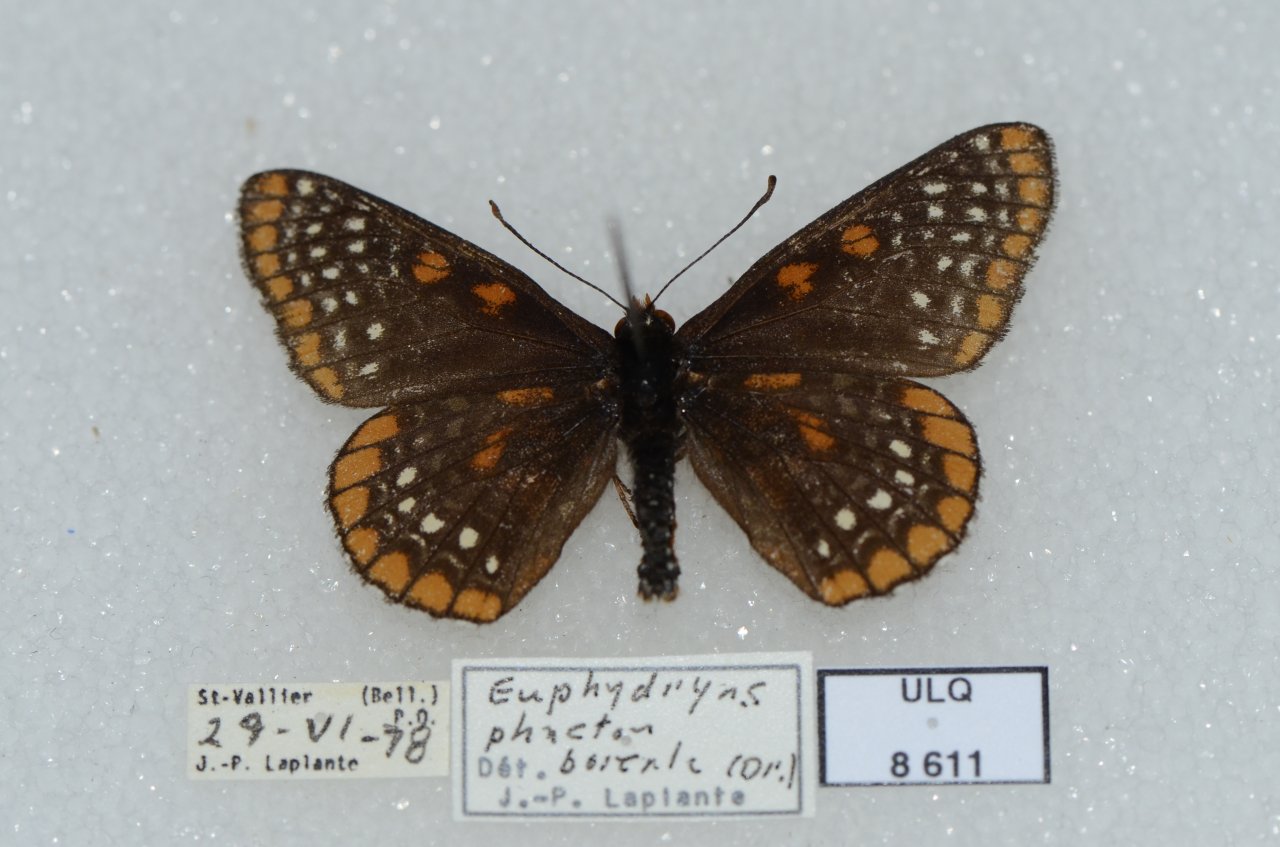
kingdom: Animalia
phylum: Arthropoda
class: Insecta
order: Lepidoptera
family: Nymphalidae
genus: Euphydryas
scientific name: Euphydryas phaeton
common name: Baltimore Checkerspot
